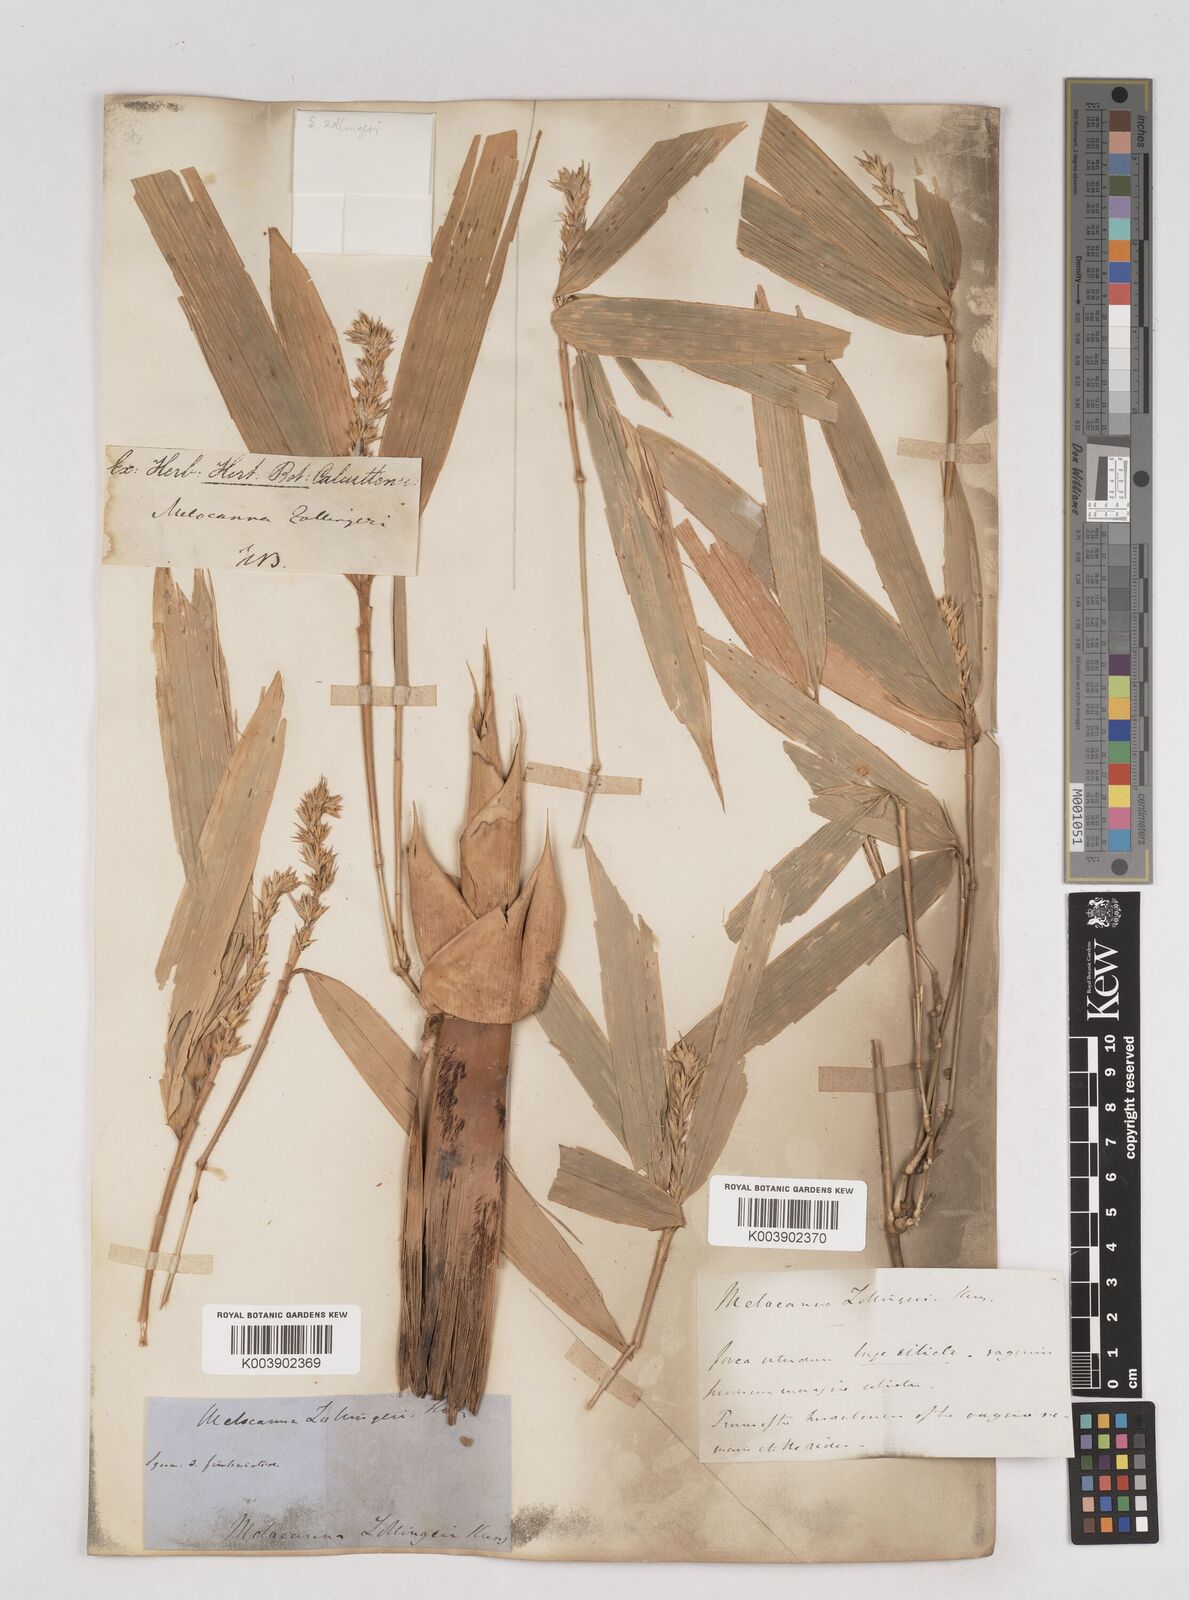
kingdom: Plantae
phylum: Tracheophyta
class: Liliopsida
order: Poales
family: Poaceae
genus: Schizostachyum
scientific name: Schizostachyum zollingeri
